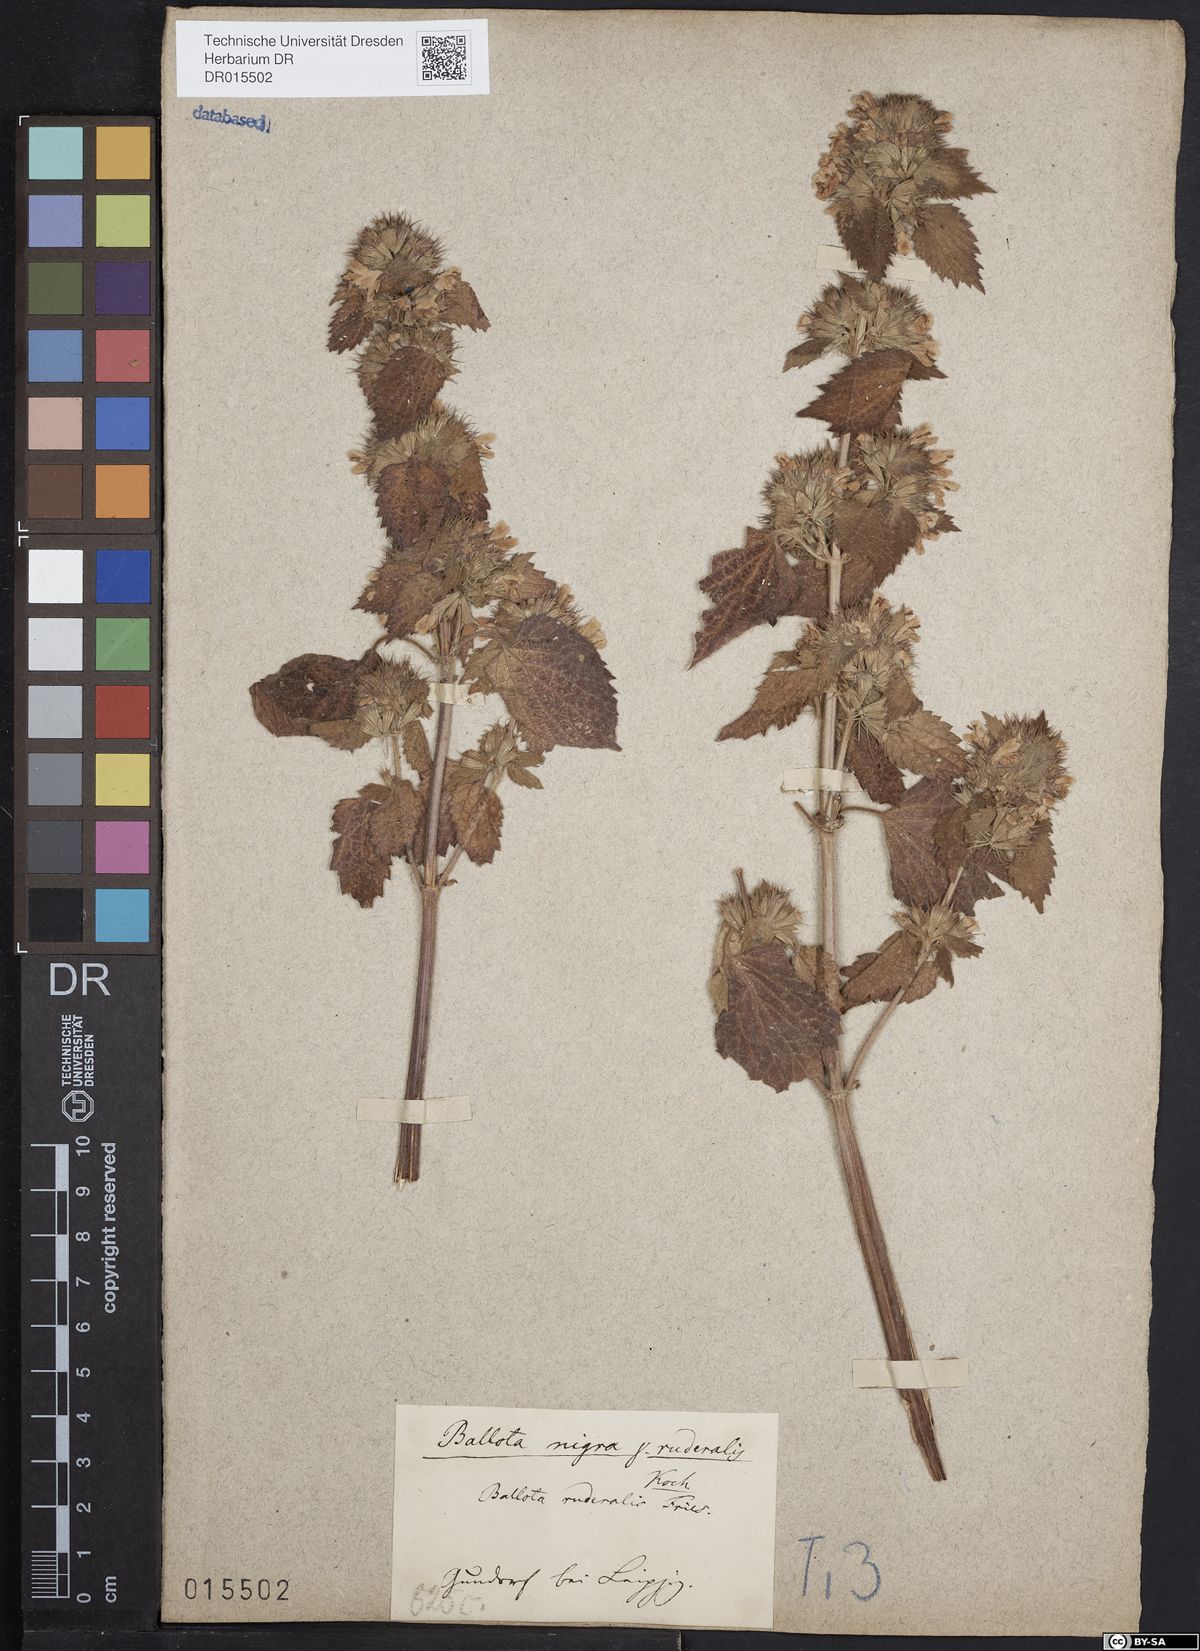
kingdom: Plantae
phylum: Tracheophyta
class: Magnoliopsida
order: Lamiales
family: Lamiaceae
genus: Ballota
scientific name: Ballota nigra
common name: Black horehound
